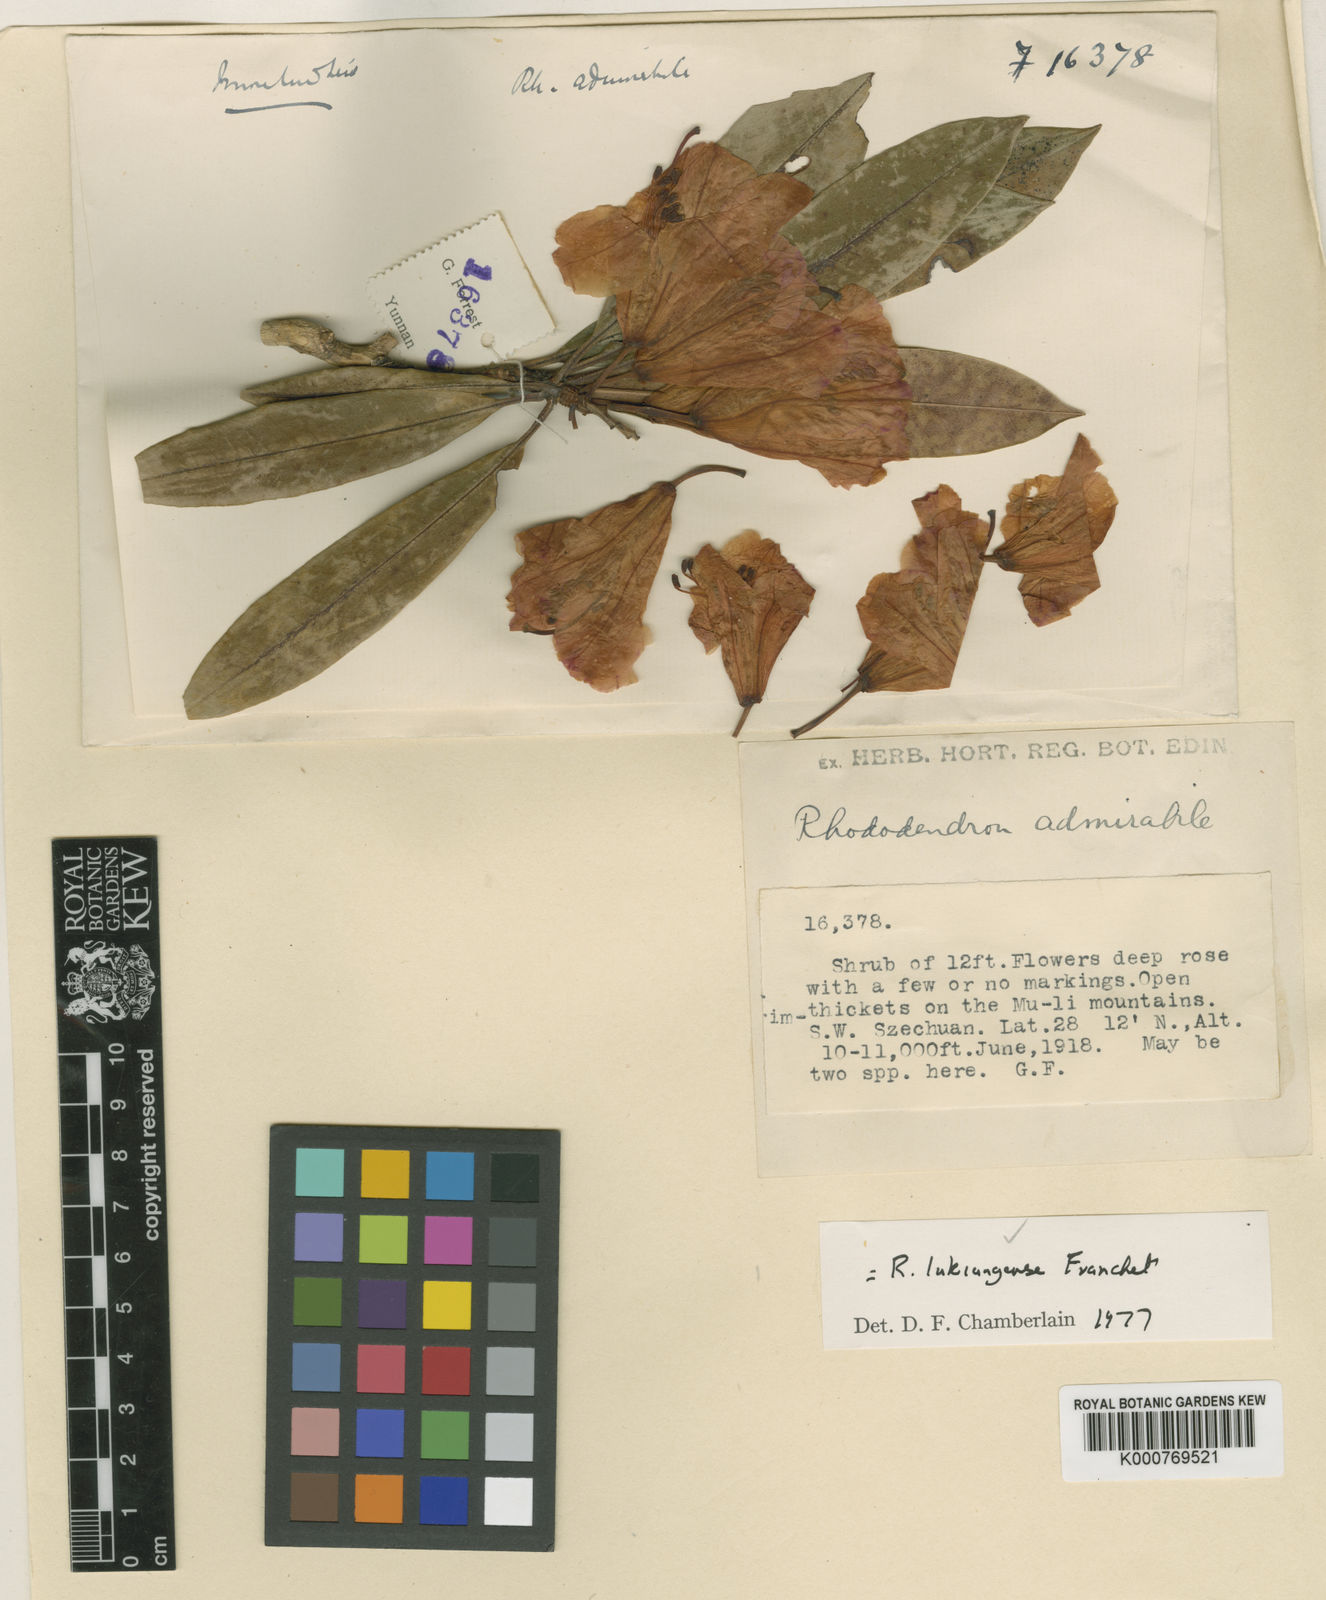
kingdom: Plantae
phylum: Tracheophyta
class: Magnoliopsida
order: Ericales
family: Ericaceae
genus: Rhododendron
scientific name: Rhododendron lukiangense
